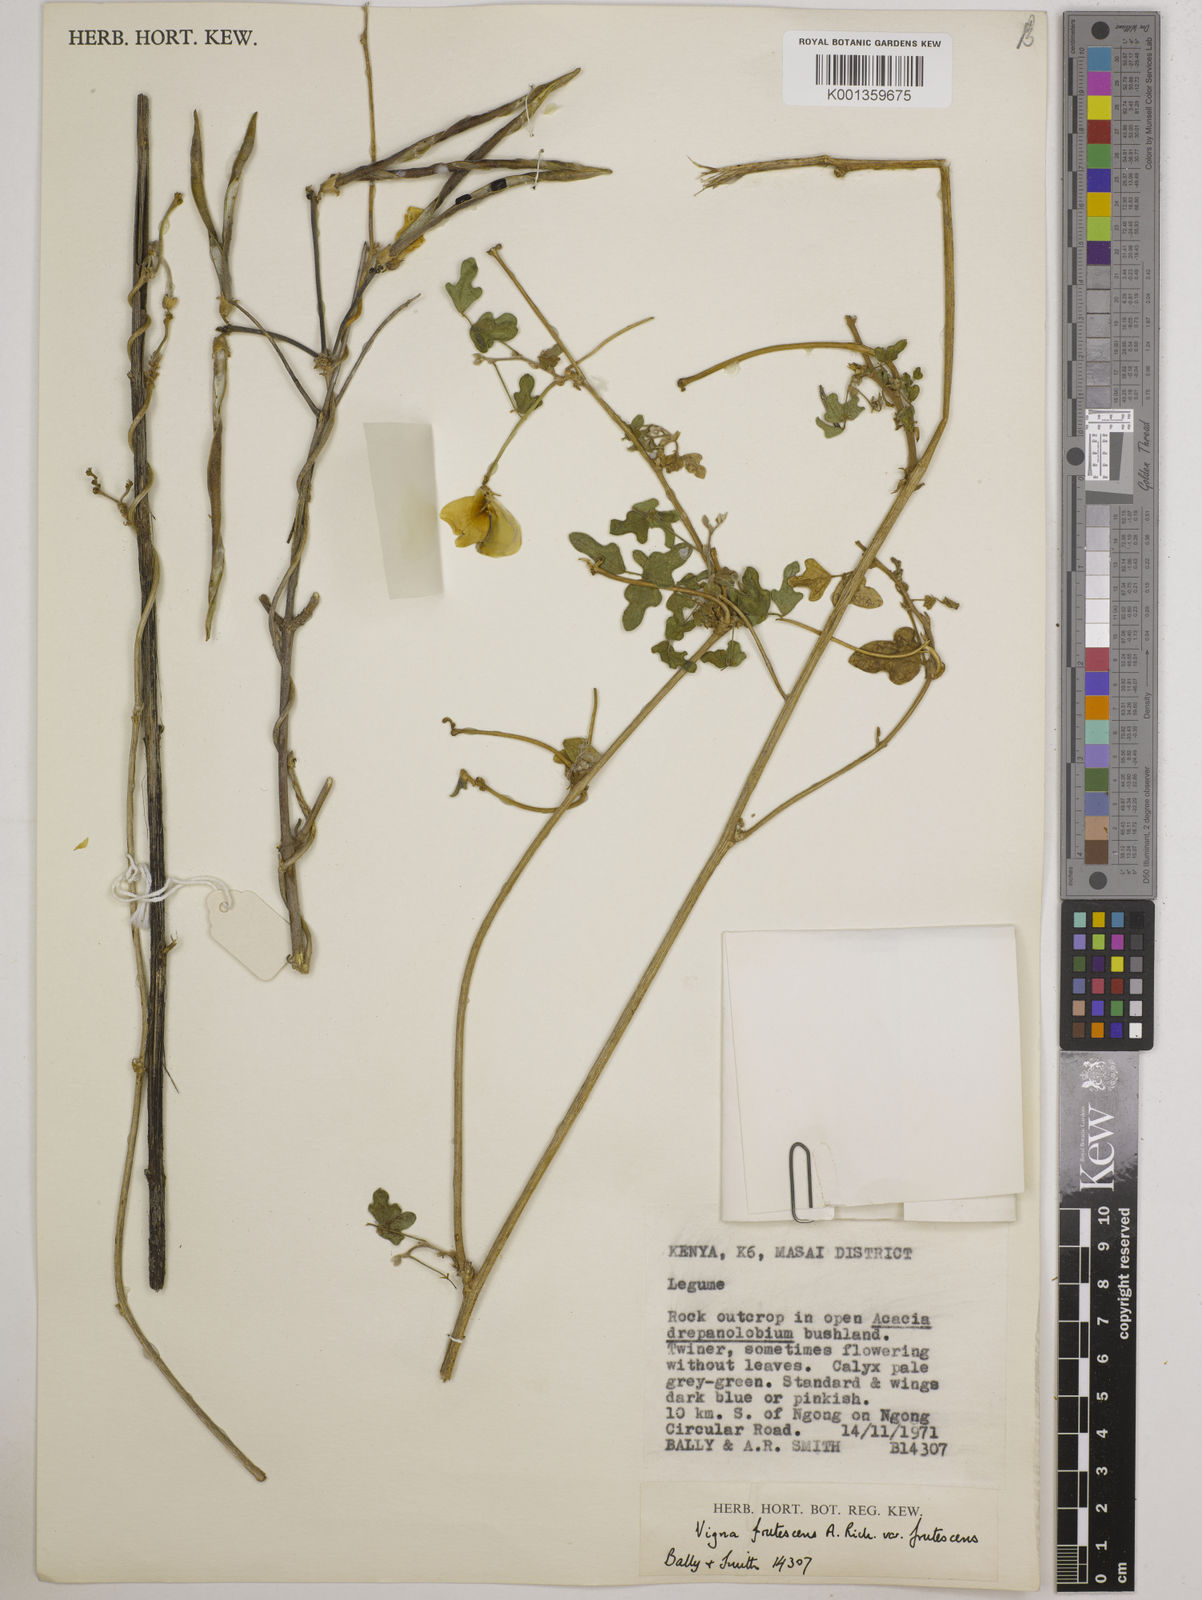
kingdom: Plantae
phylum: Tracheophyta
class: Magnoliopsida
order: Fabales
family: Fabaceae
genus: Vigna
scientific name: Vigna frutescens
